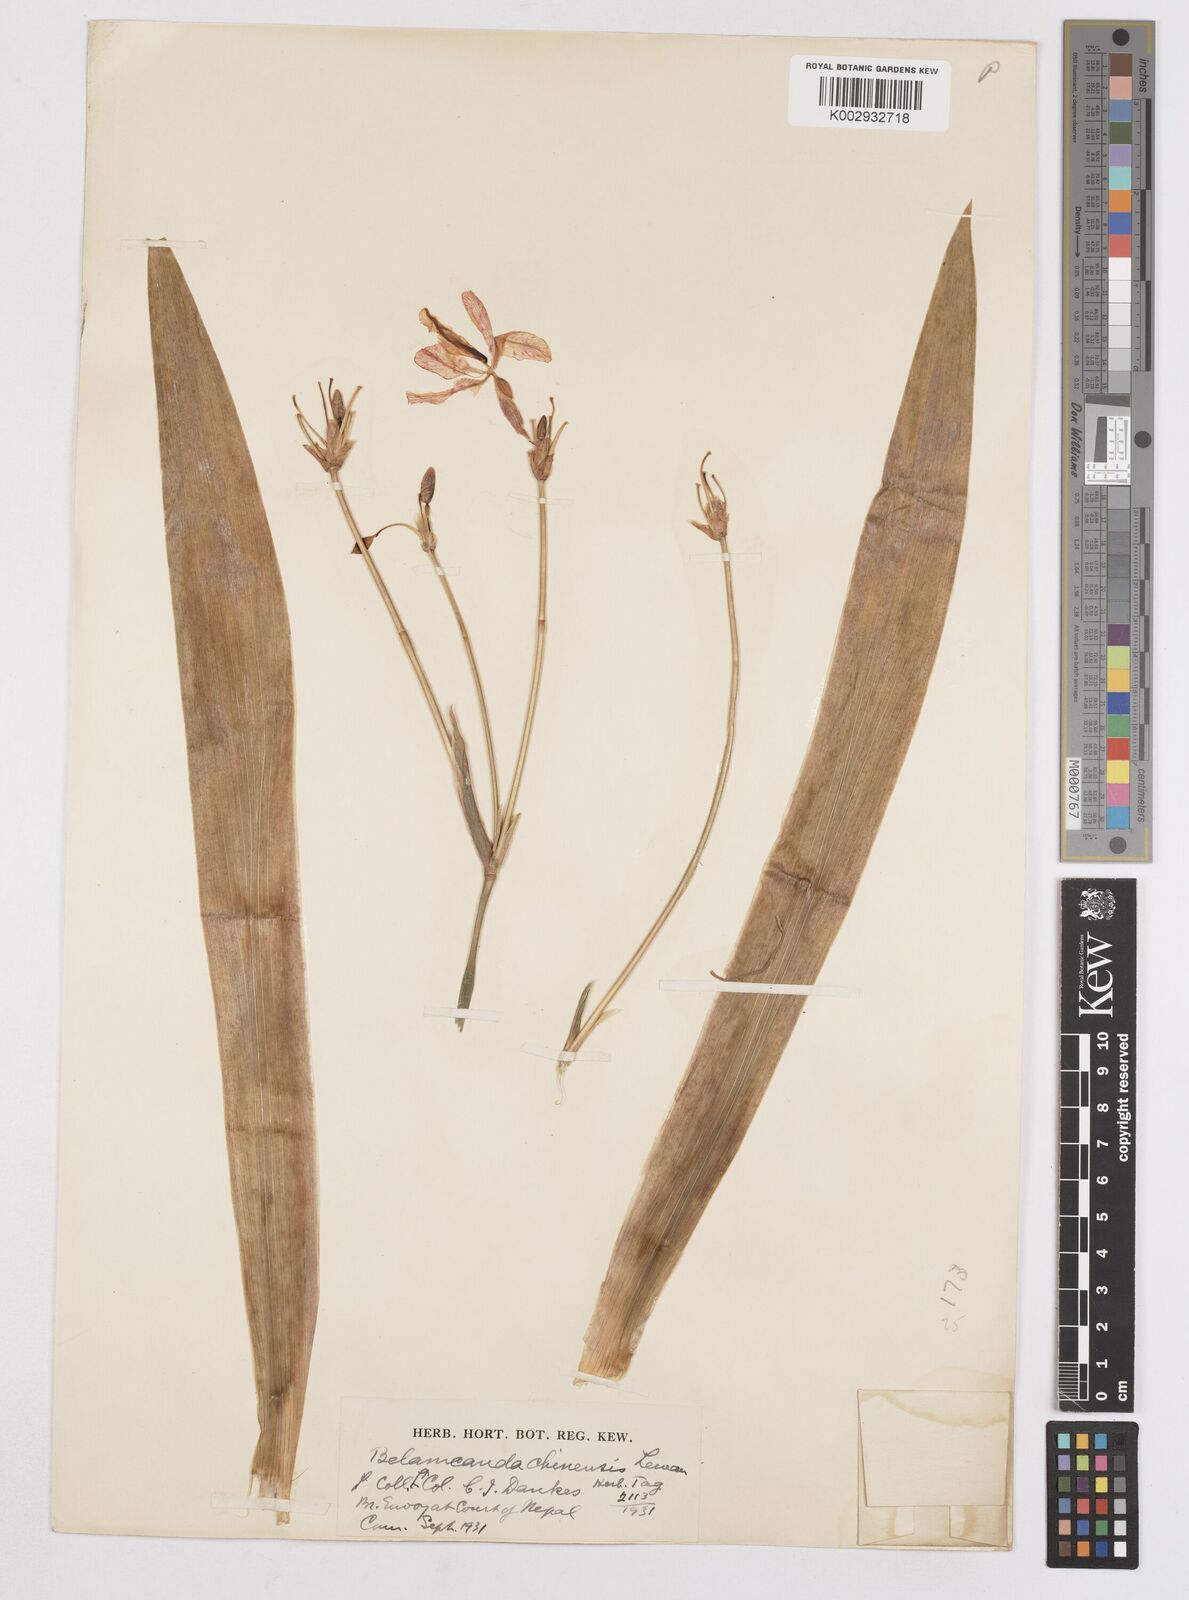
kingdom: Plantae
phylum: Tracheophyta
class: Liliopsida
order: Asparagales
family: Iridaceae
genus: Iris
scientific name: Iris
